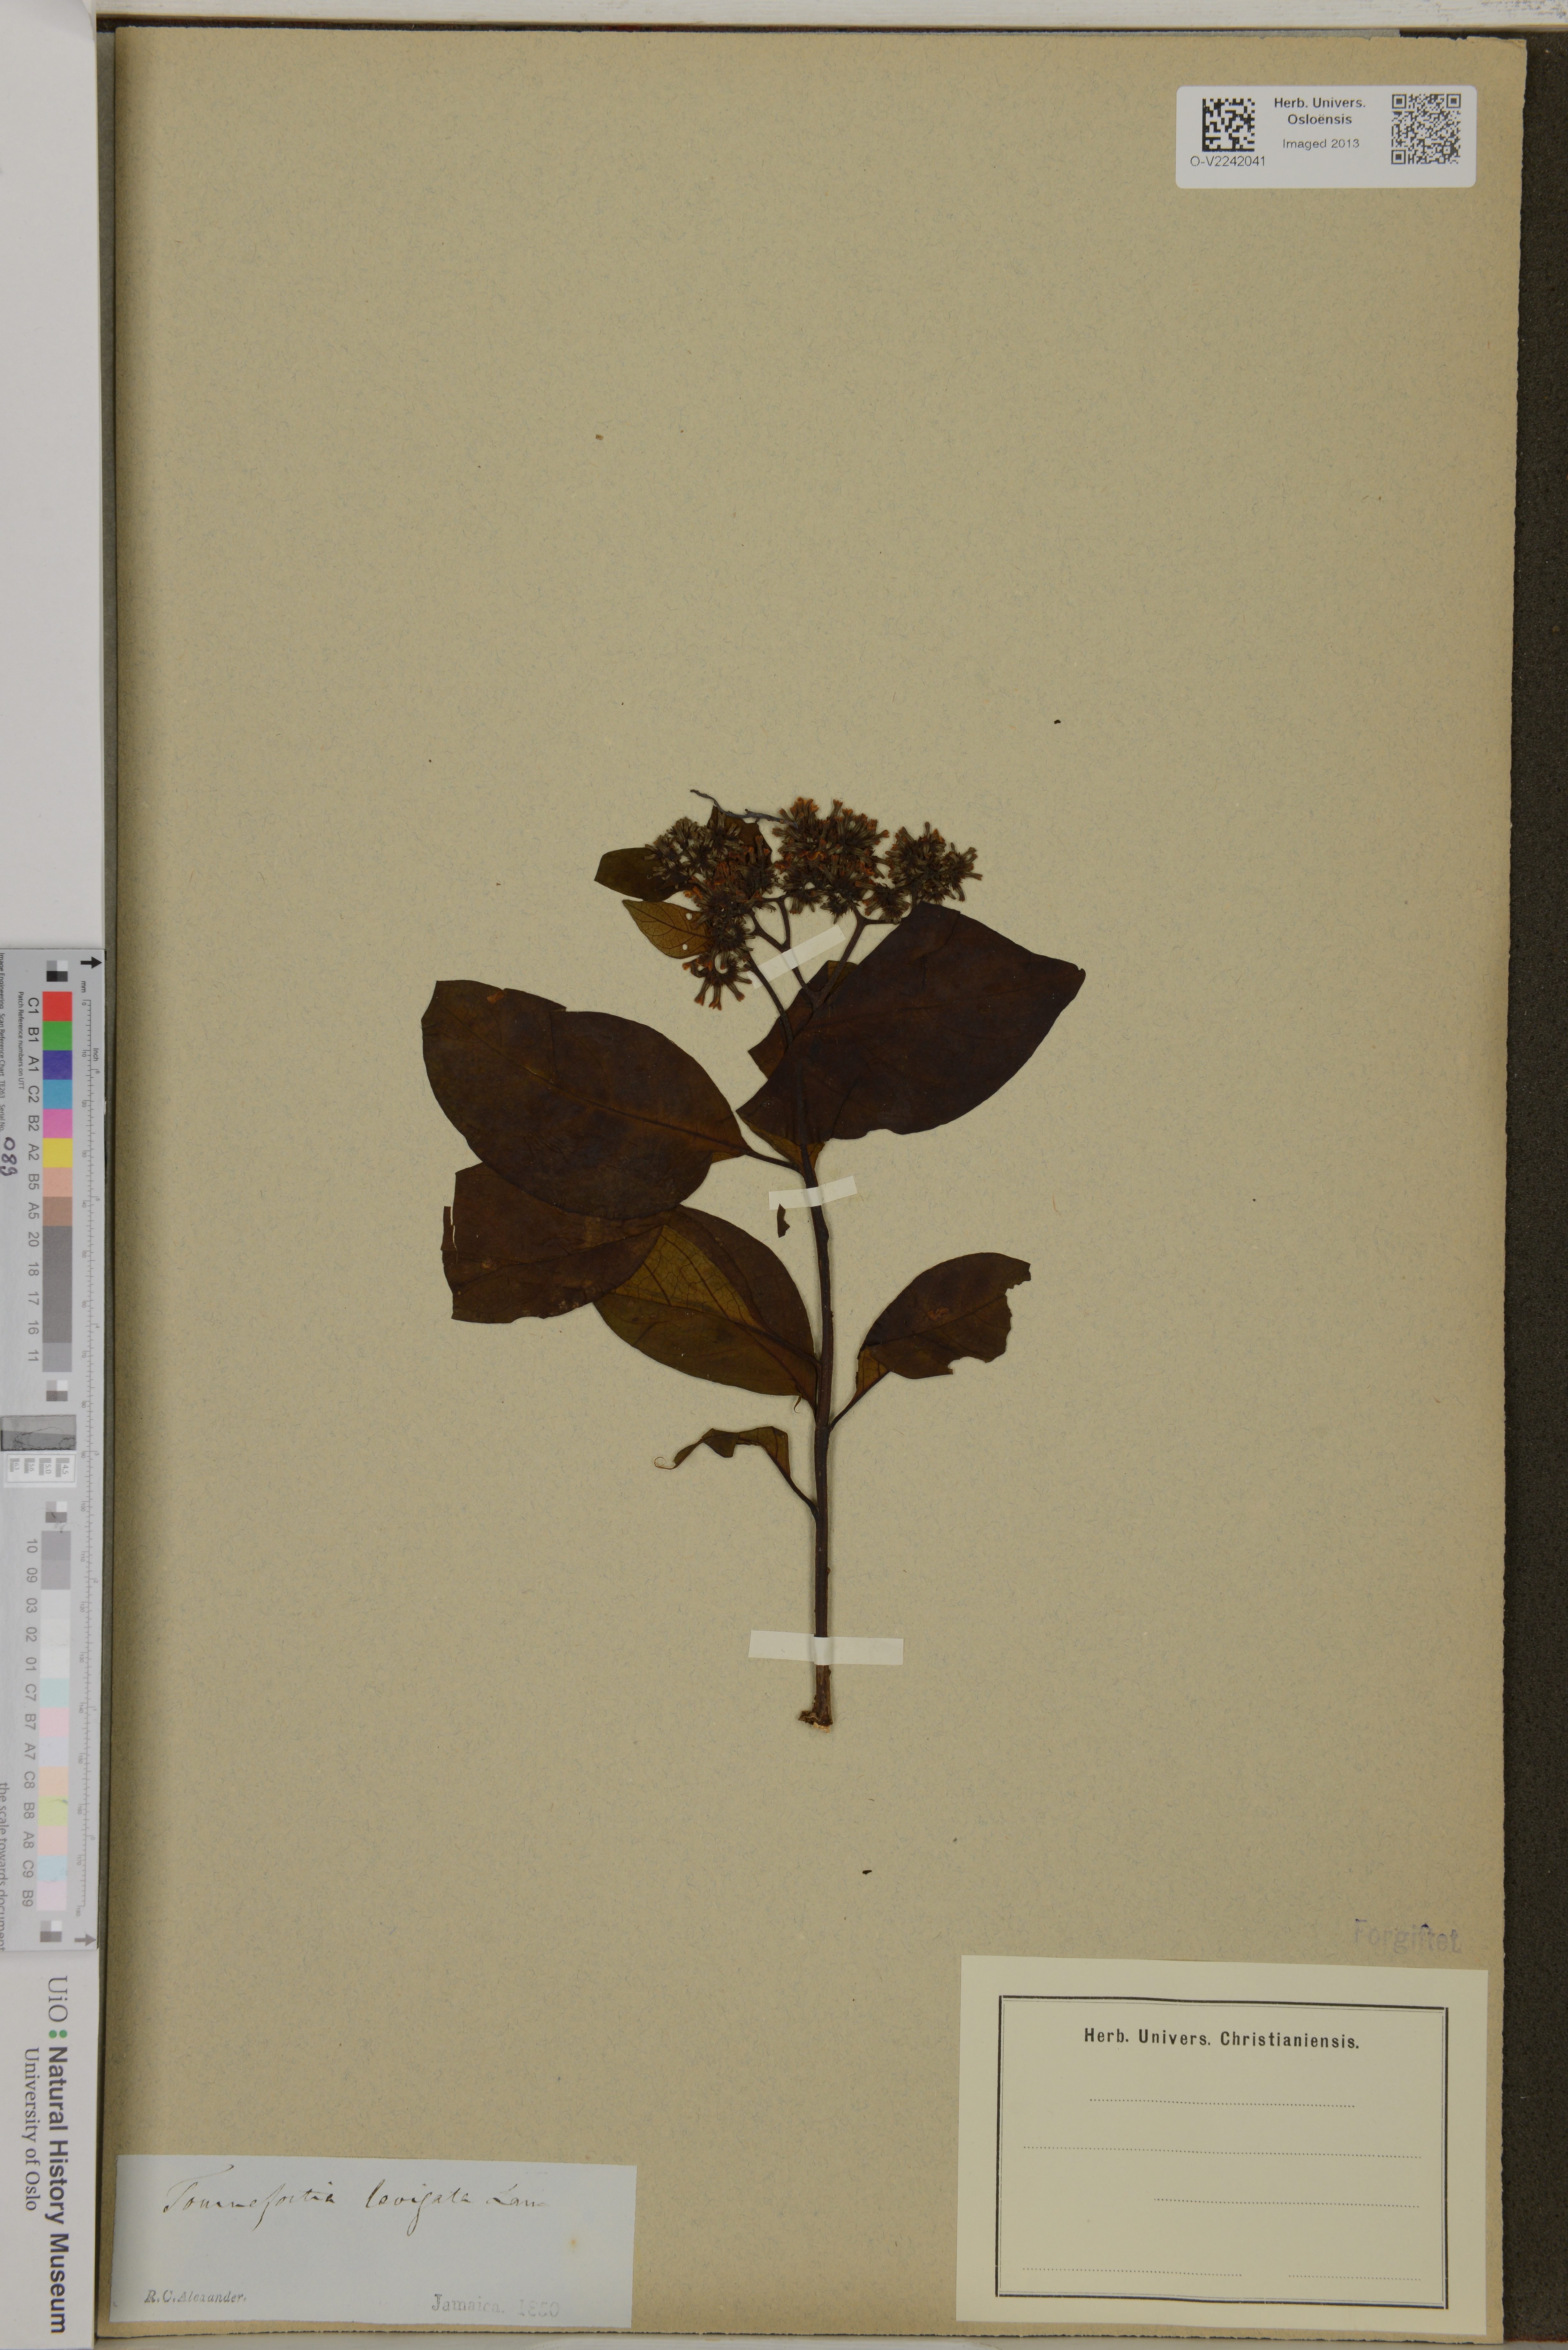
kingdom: Plantae
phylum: Tracheophyta
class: Magnoliopsida
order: Boraginales
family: Heliotropiaceae
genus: Tournefortia
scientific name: Tournefortia
